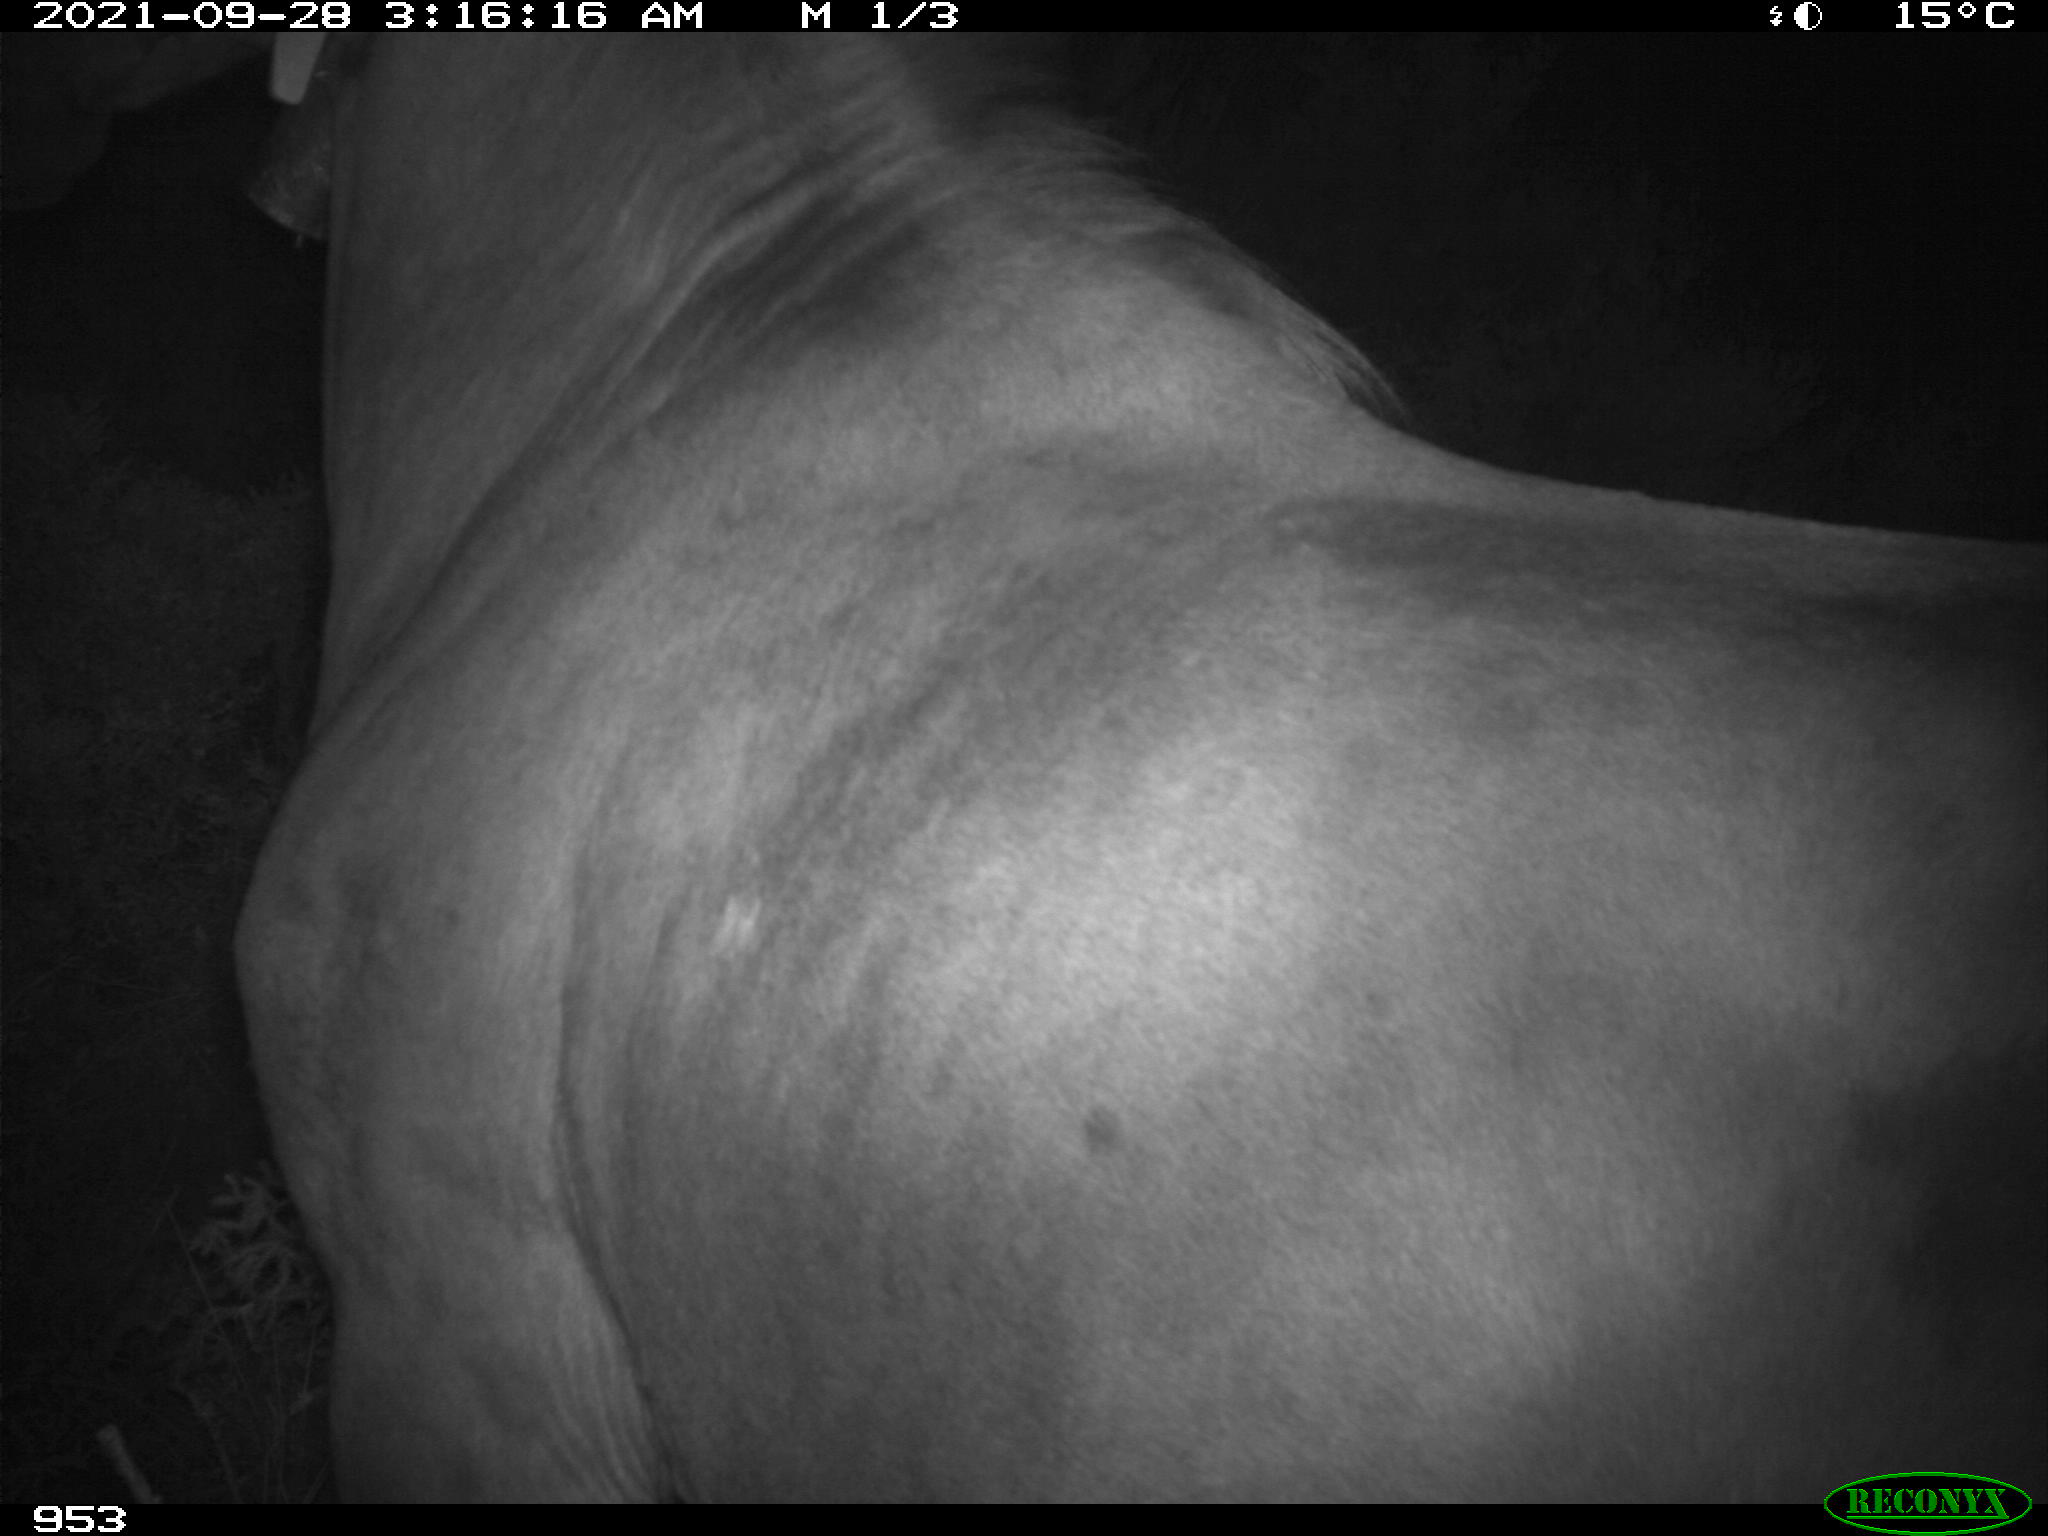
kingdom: Animalia
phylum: Chordata
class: Mammalia
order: Perissodactyla
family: Equidae
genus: Equus
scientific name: Equus caballus
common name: Horse
